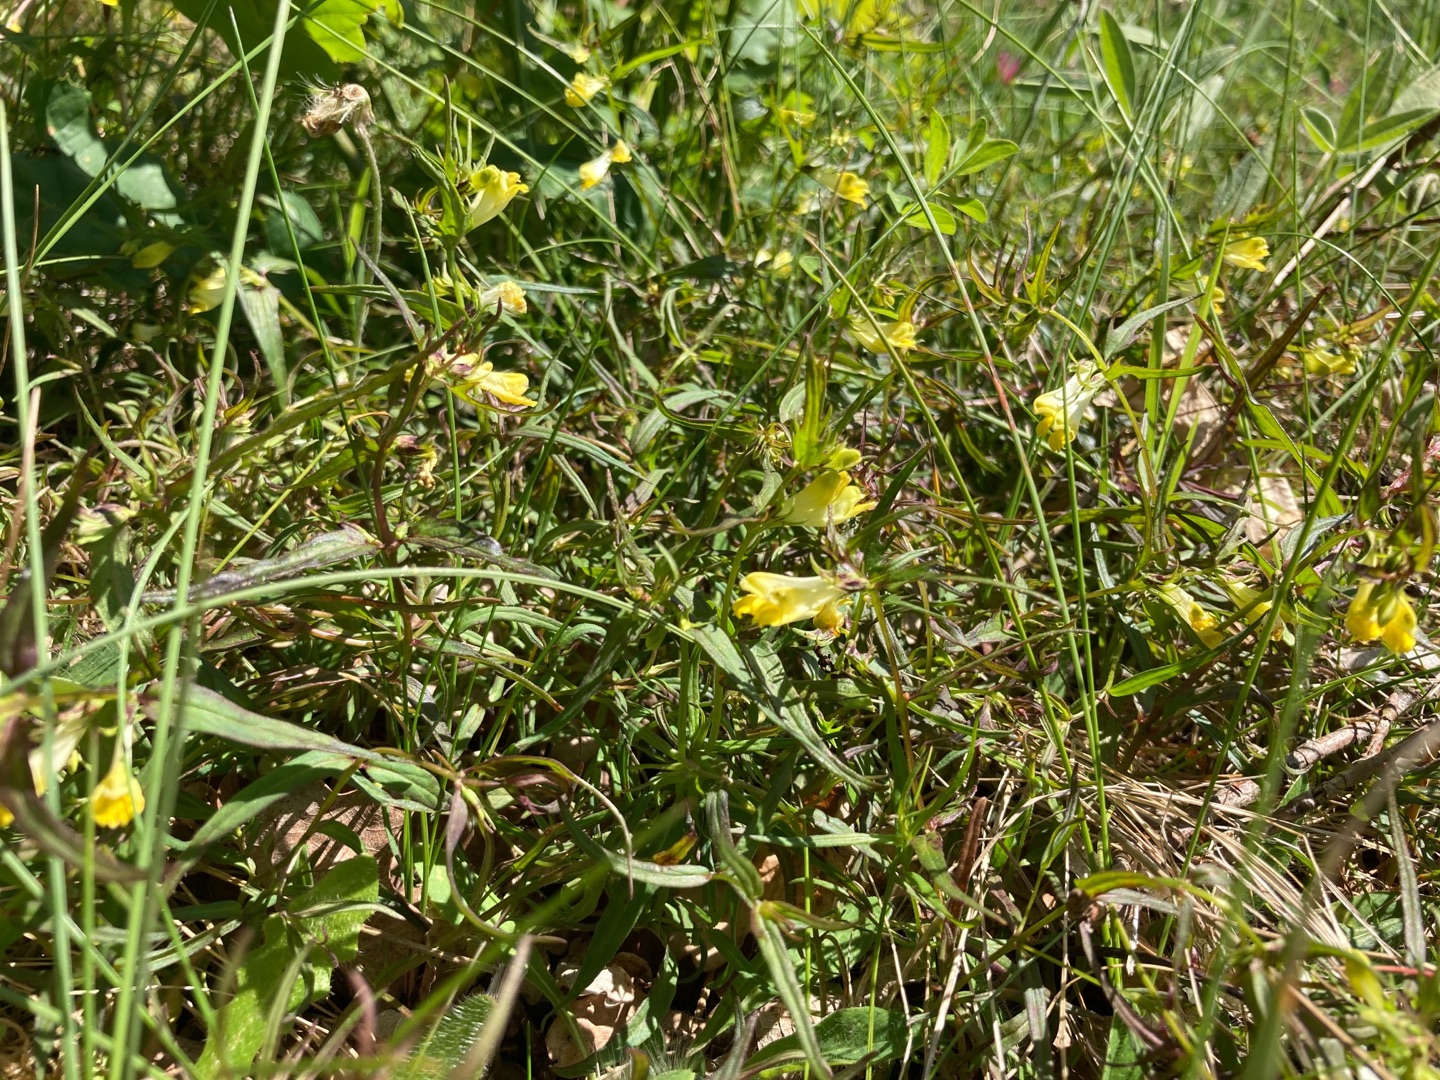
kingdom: Plantae
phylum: Tracheophyta
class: Magnoliopsida
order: Lamiales
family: Orobanchaceae
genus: Melampyrum
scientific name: Melampyrum pratense
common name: Almindelig kohvede
